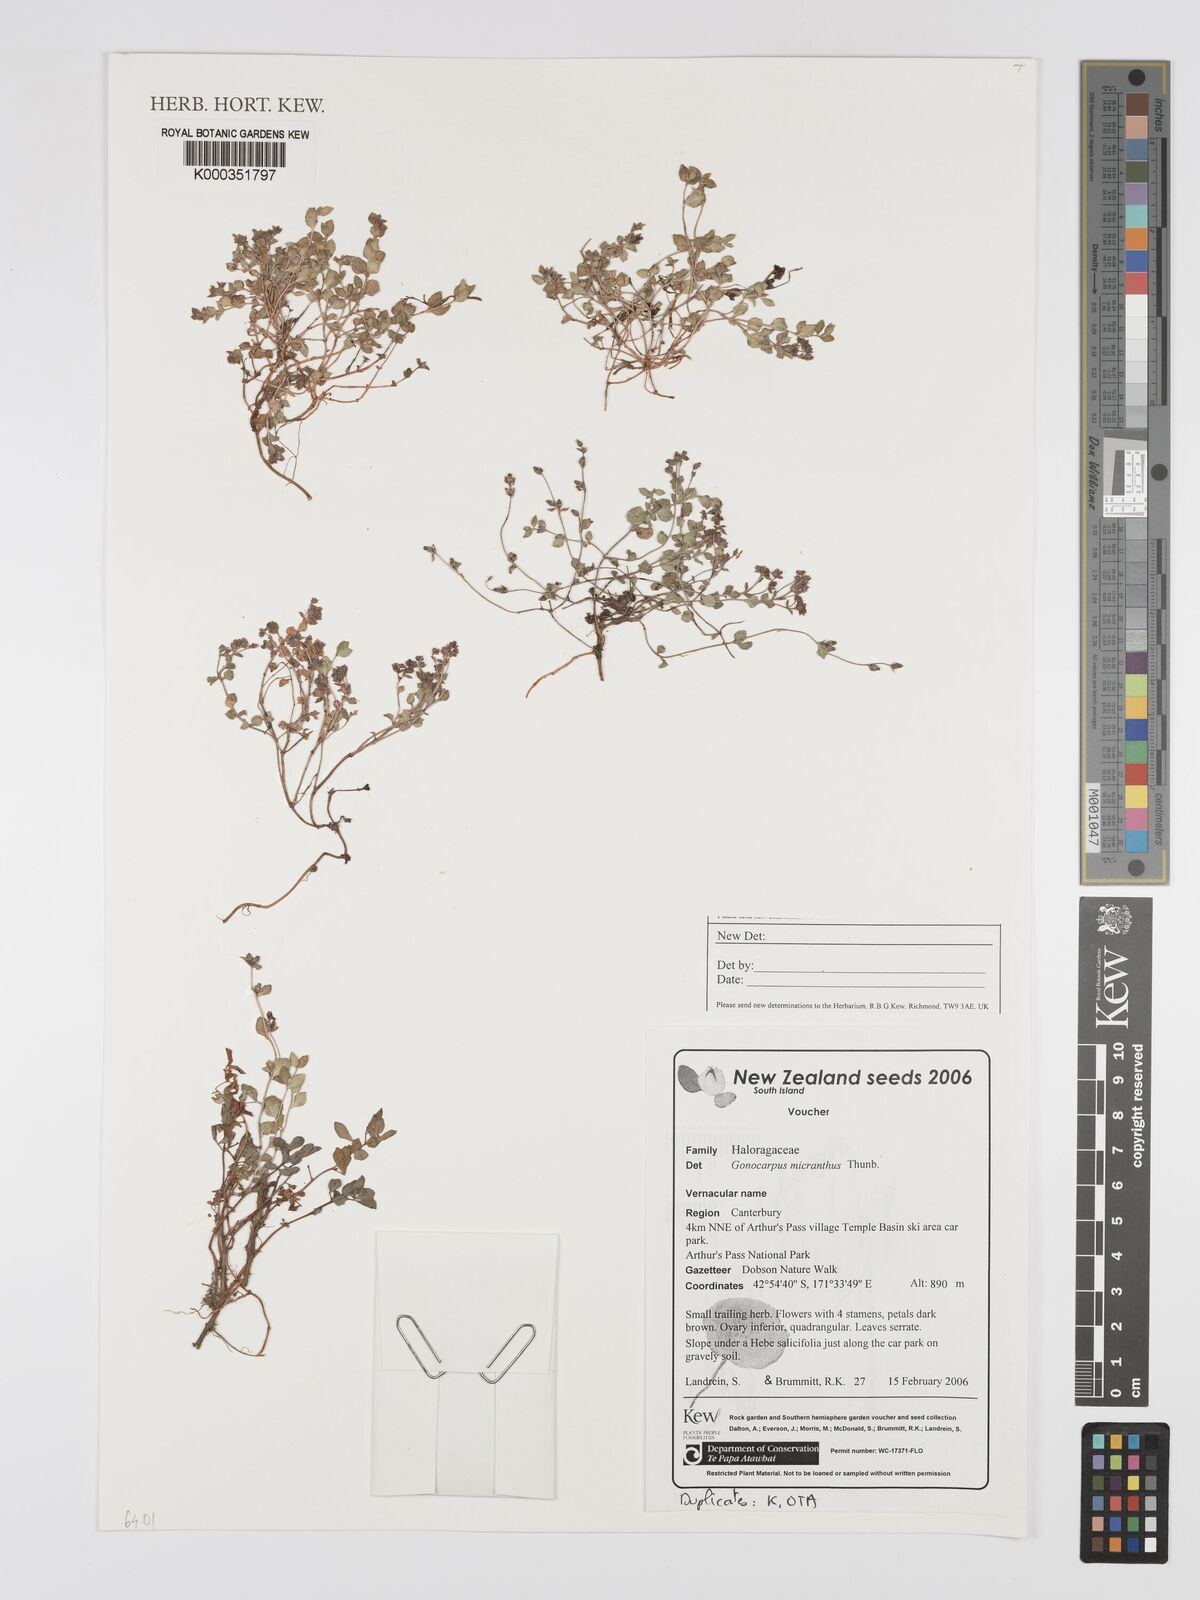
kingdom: Plantae
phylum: Tracheophyta
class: Magnoliopsida
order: Saxifragales
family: Haloragaceae
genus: Gonocarpus
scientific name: Gonocarpus micranthus
